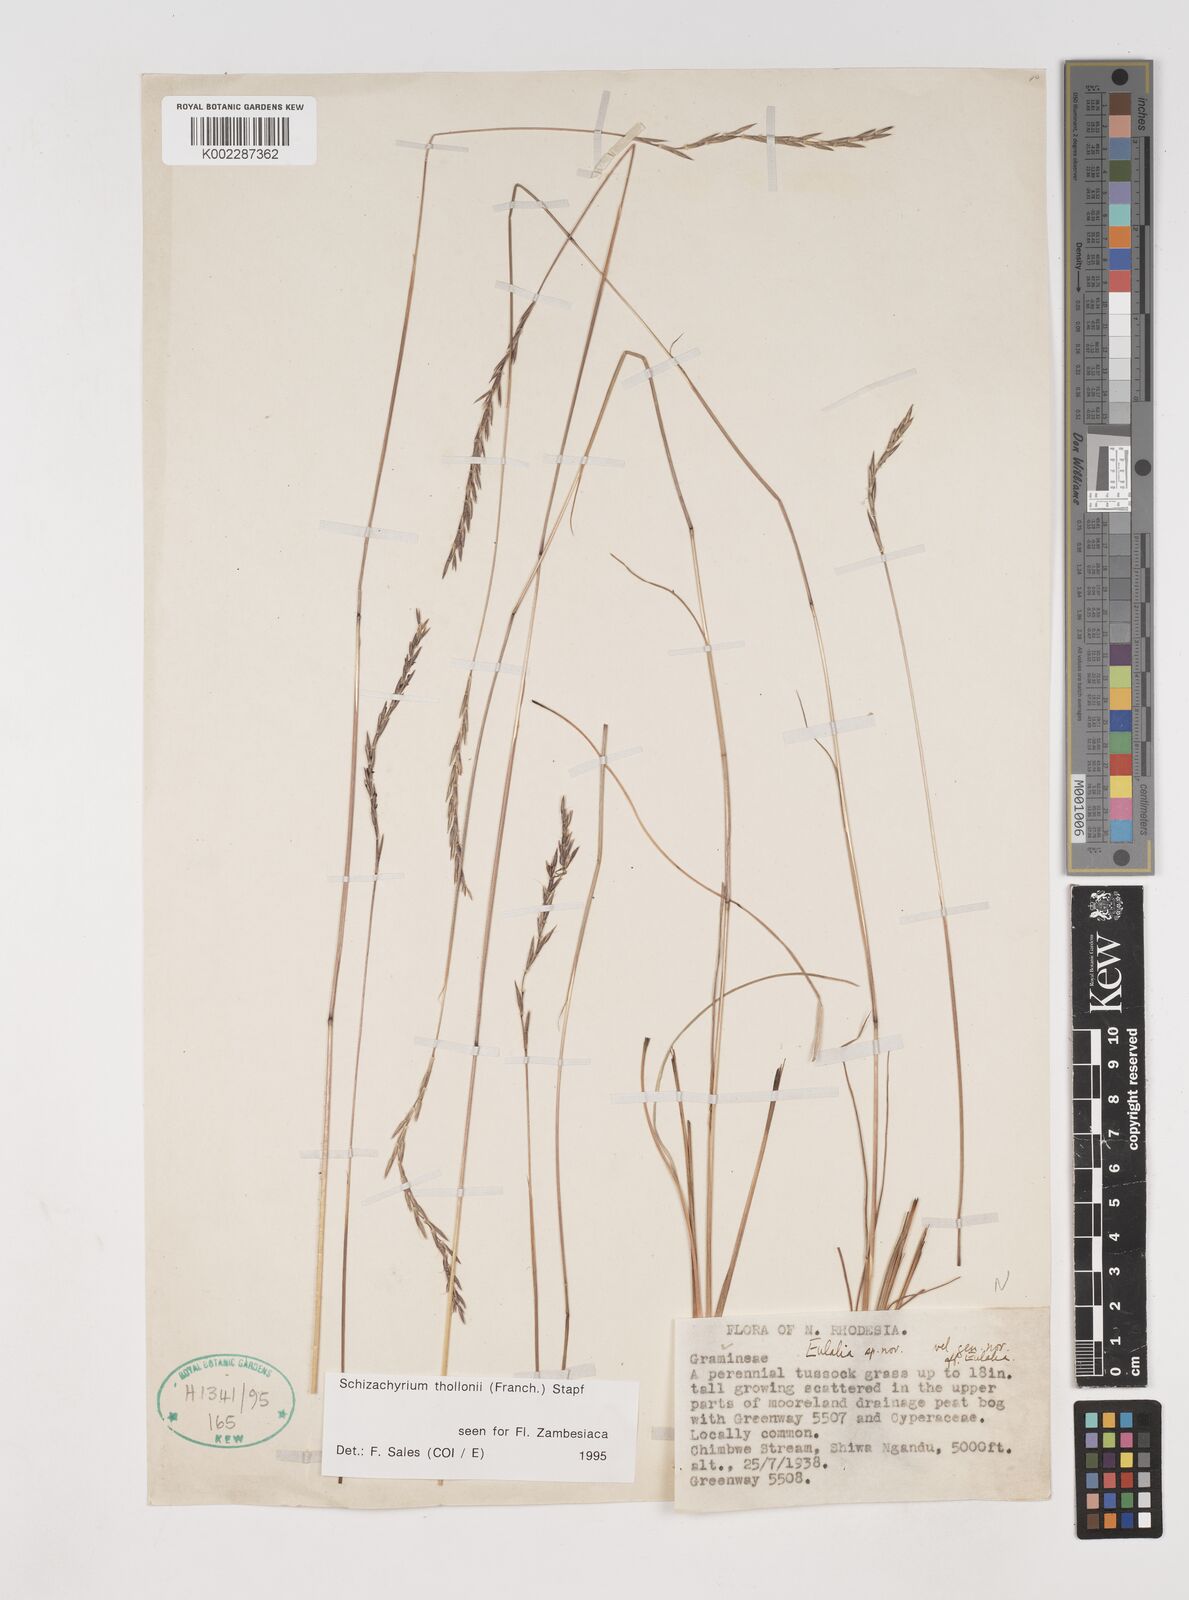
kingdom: Plantae
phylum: Tracheophyta
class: Liliopsida
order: Poales
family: Poaceae
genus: Schizachyrium
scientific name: Schizachyrium thollonii
